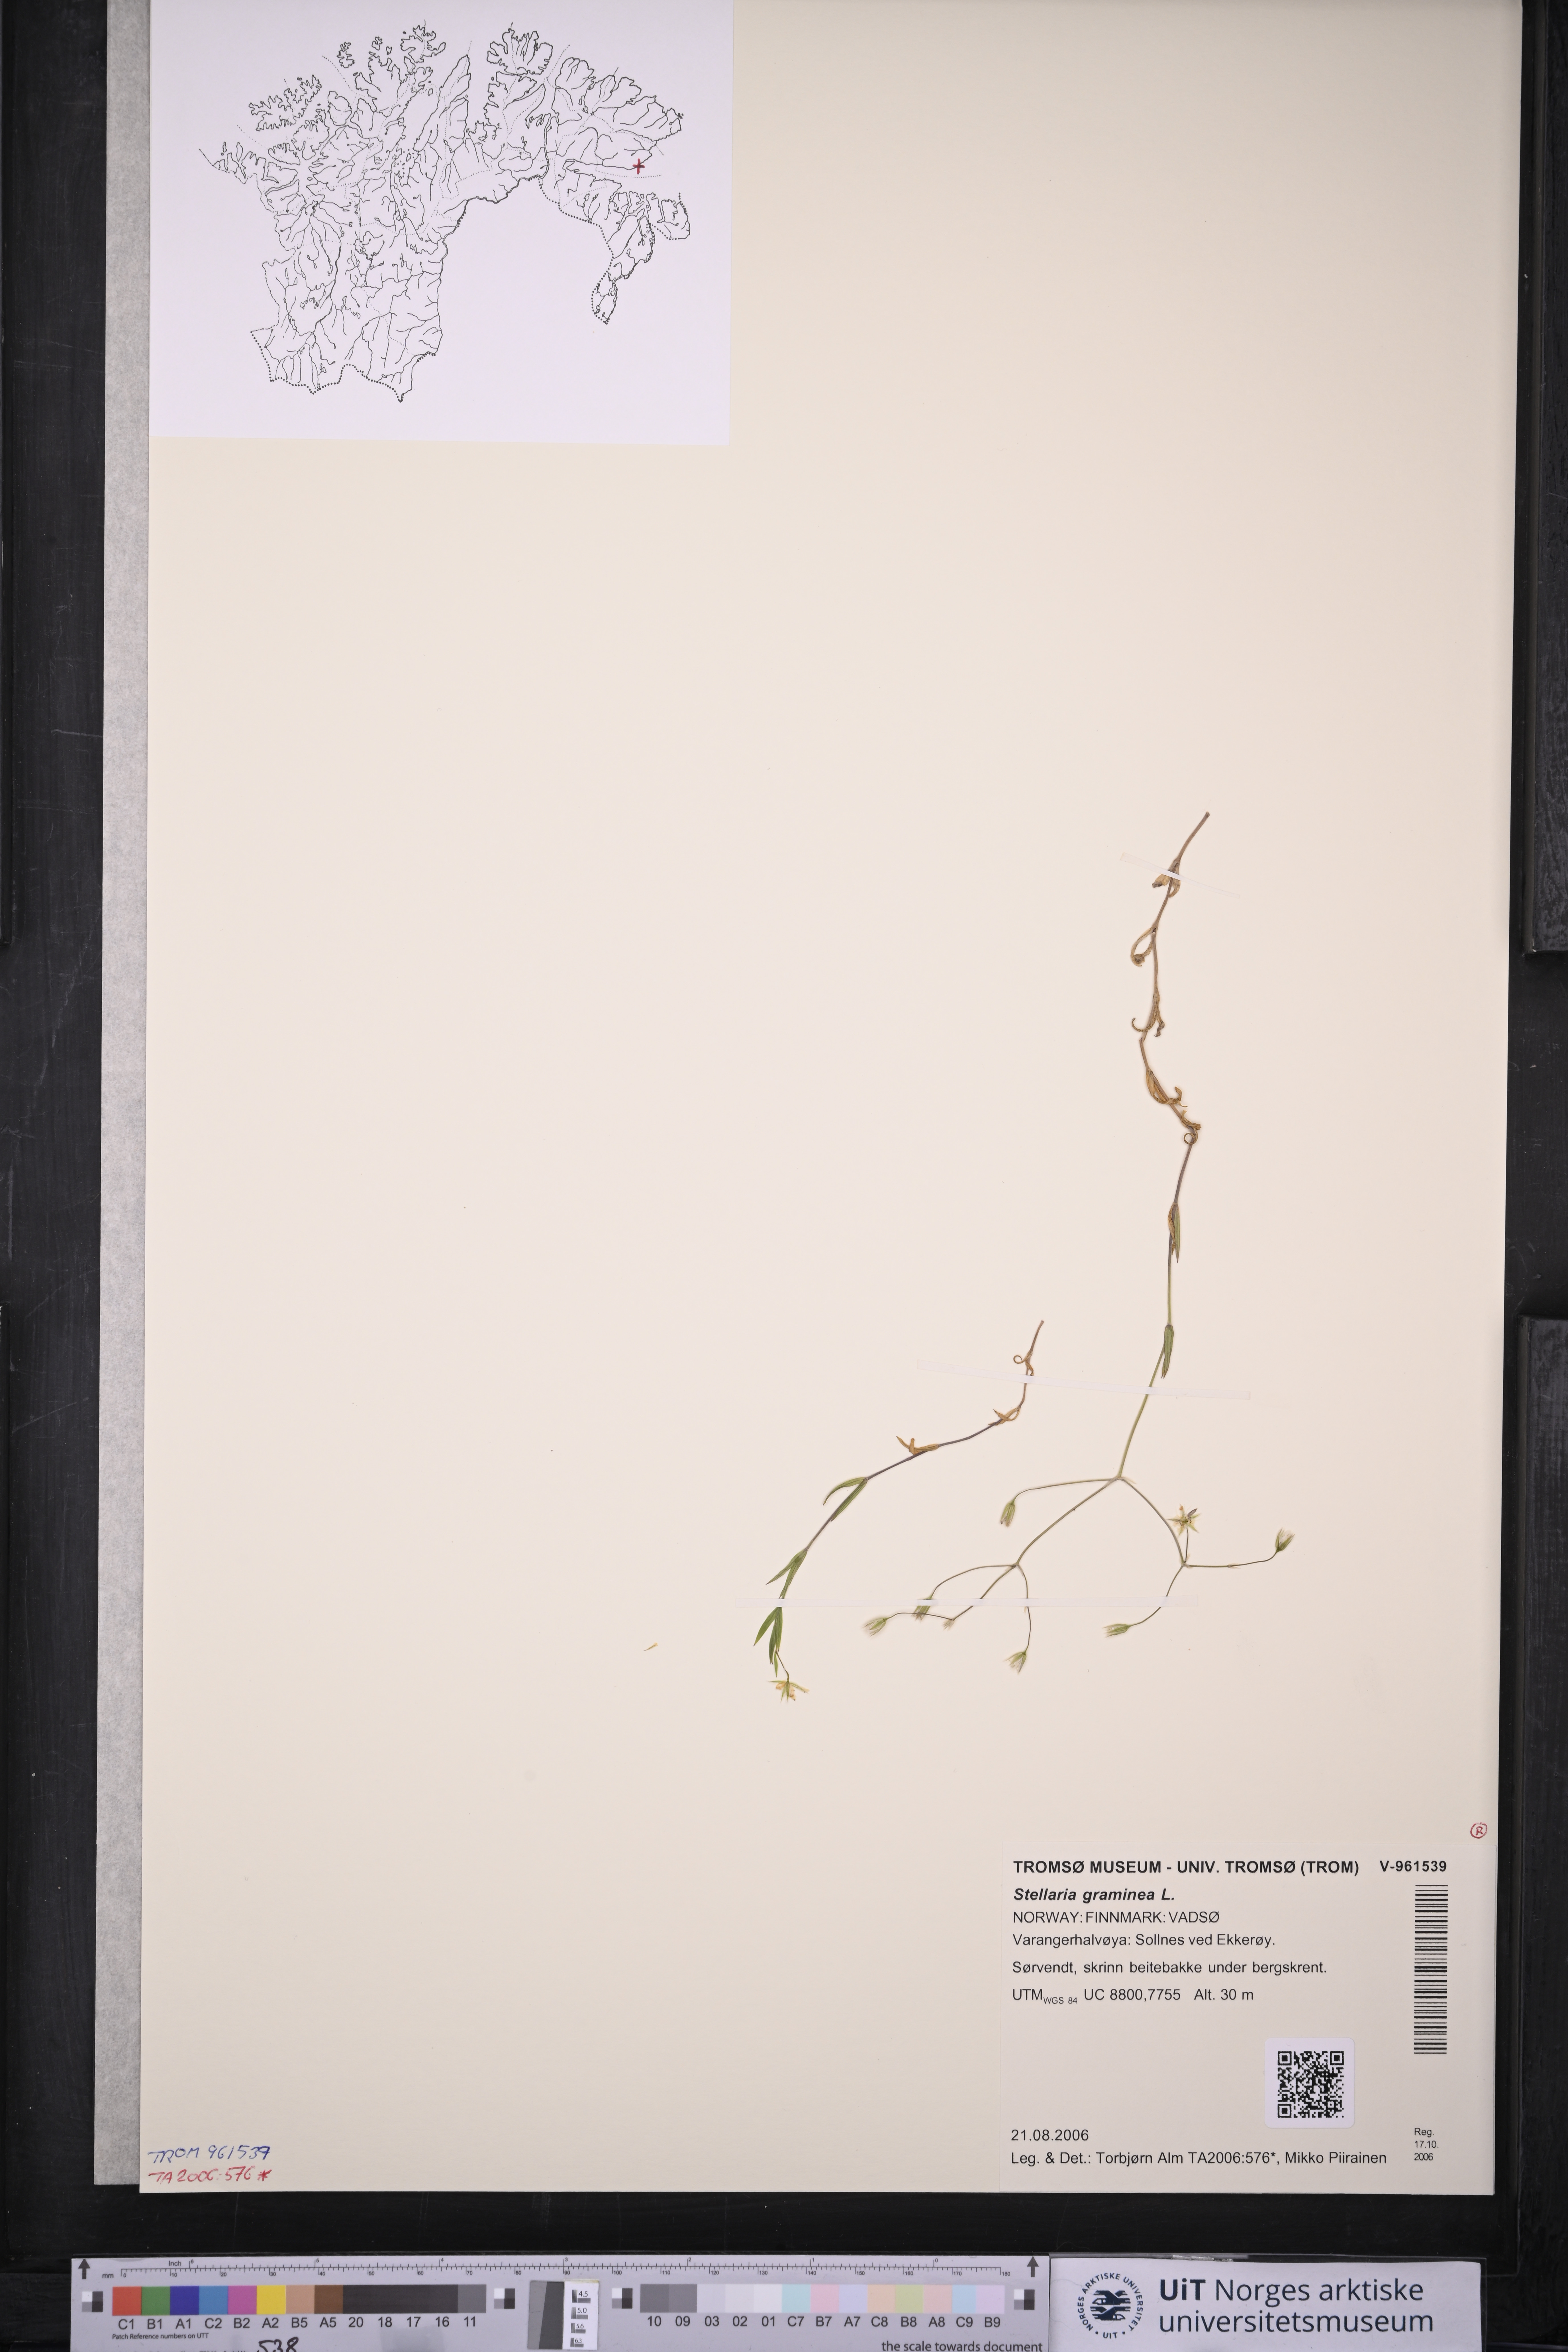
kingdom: Plantae
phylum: Tracheophyta
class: Magnoliopsida
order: Caryophyllales
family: Caryophyllaceae
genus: Stellaria
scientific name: Stellaria graminea
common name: Grass-like starwort
